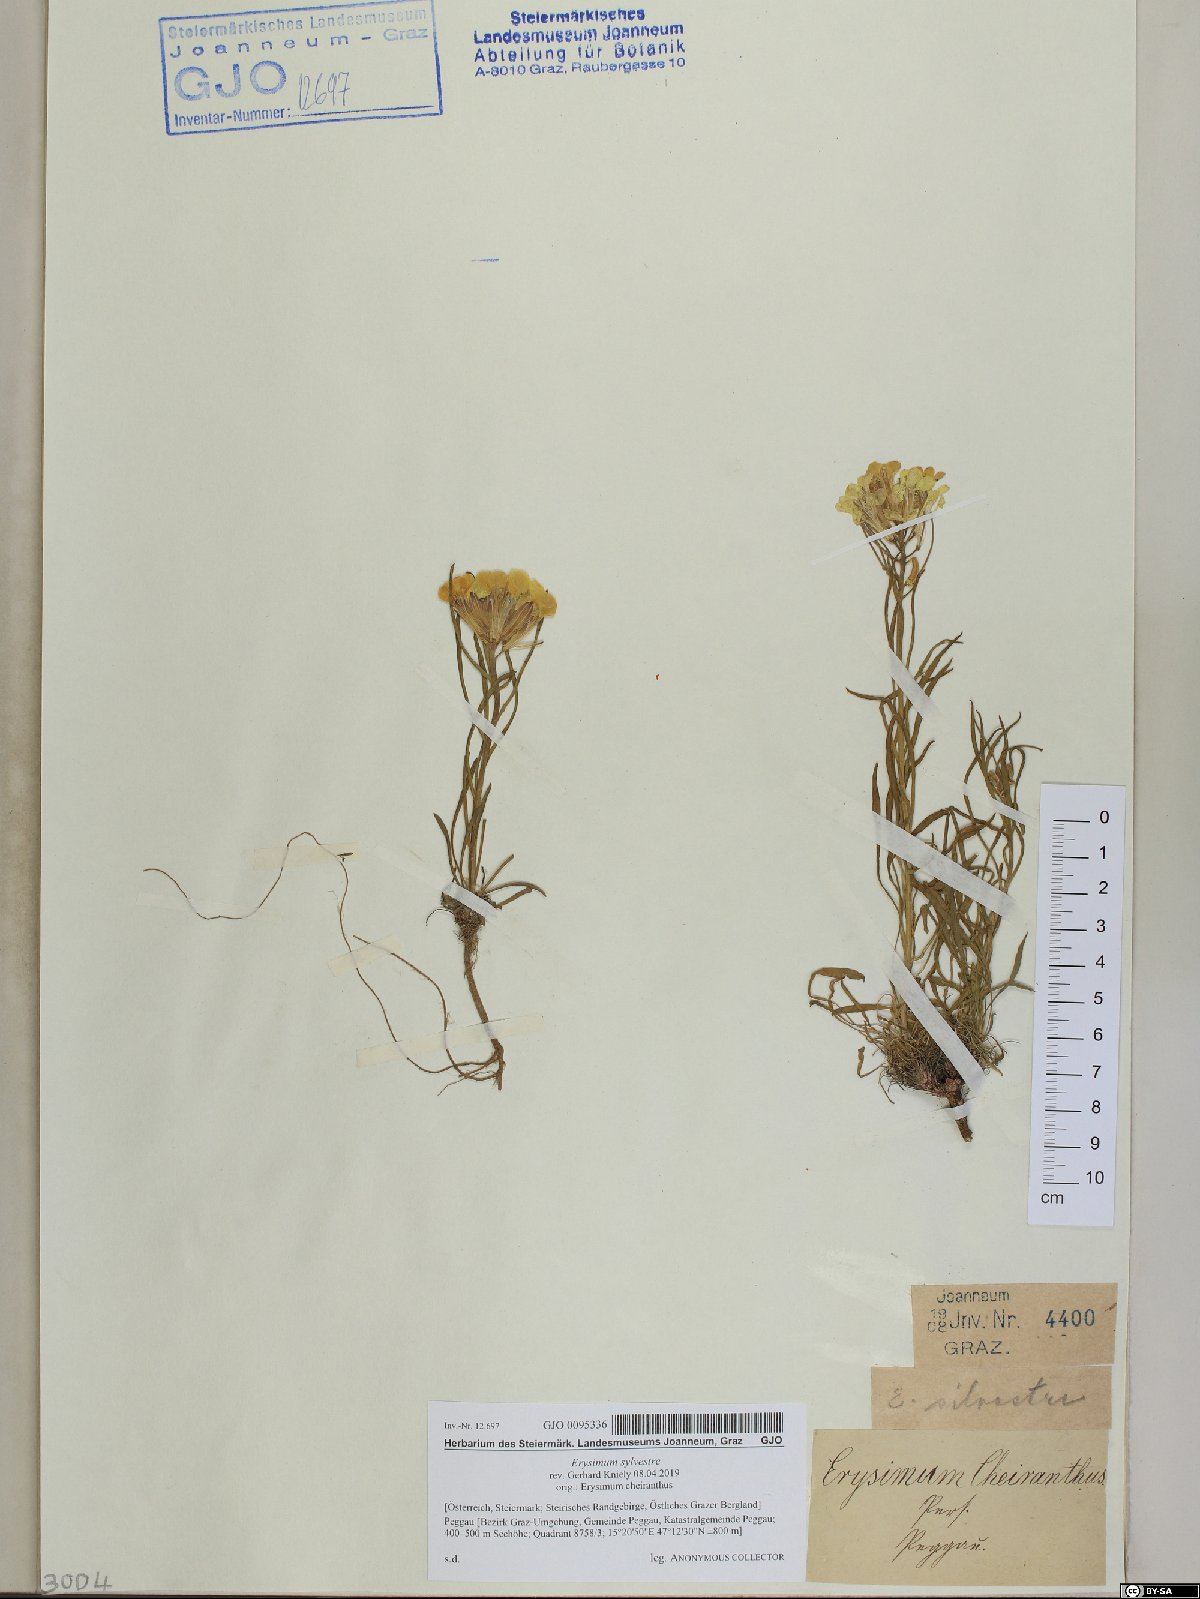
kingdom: Plantae
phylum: Tracheophyta
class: Magnoliopsida
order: Brassicales
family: Brassicaceae
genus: Erysimum
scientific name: Erysimum sylvestre
